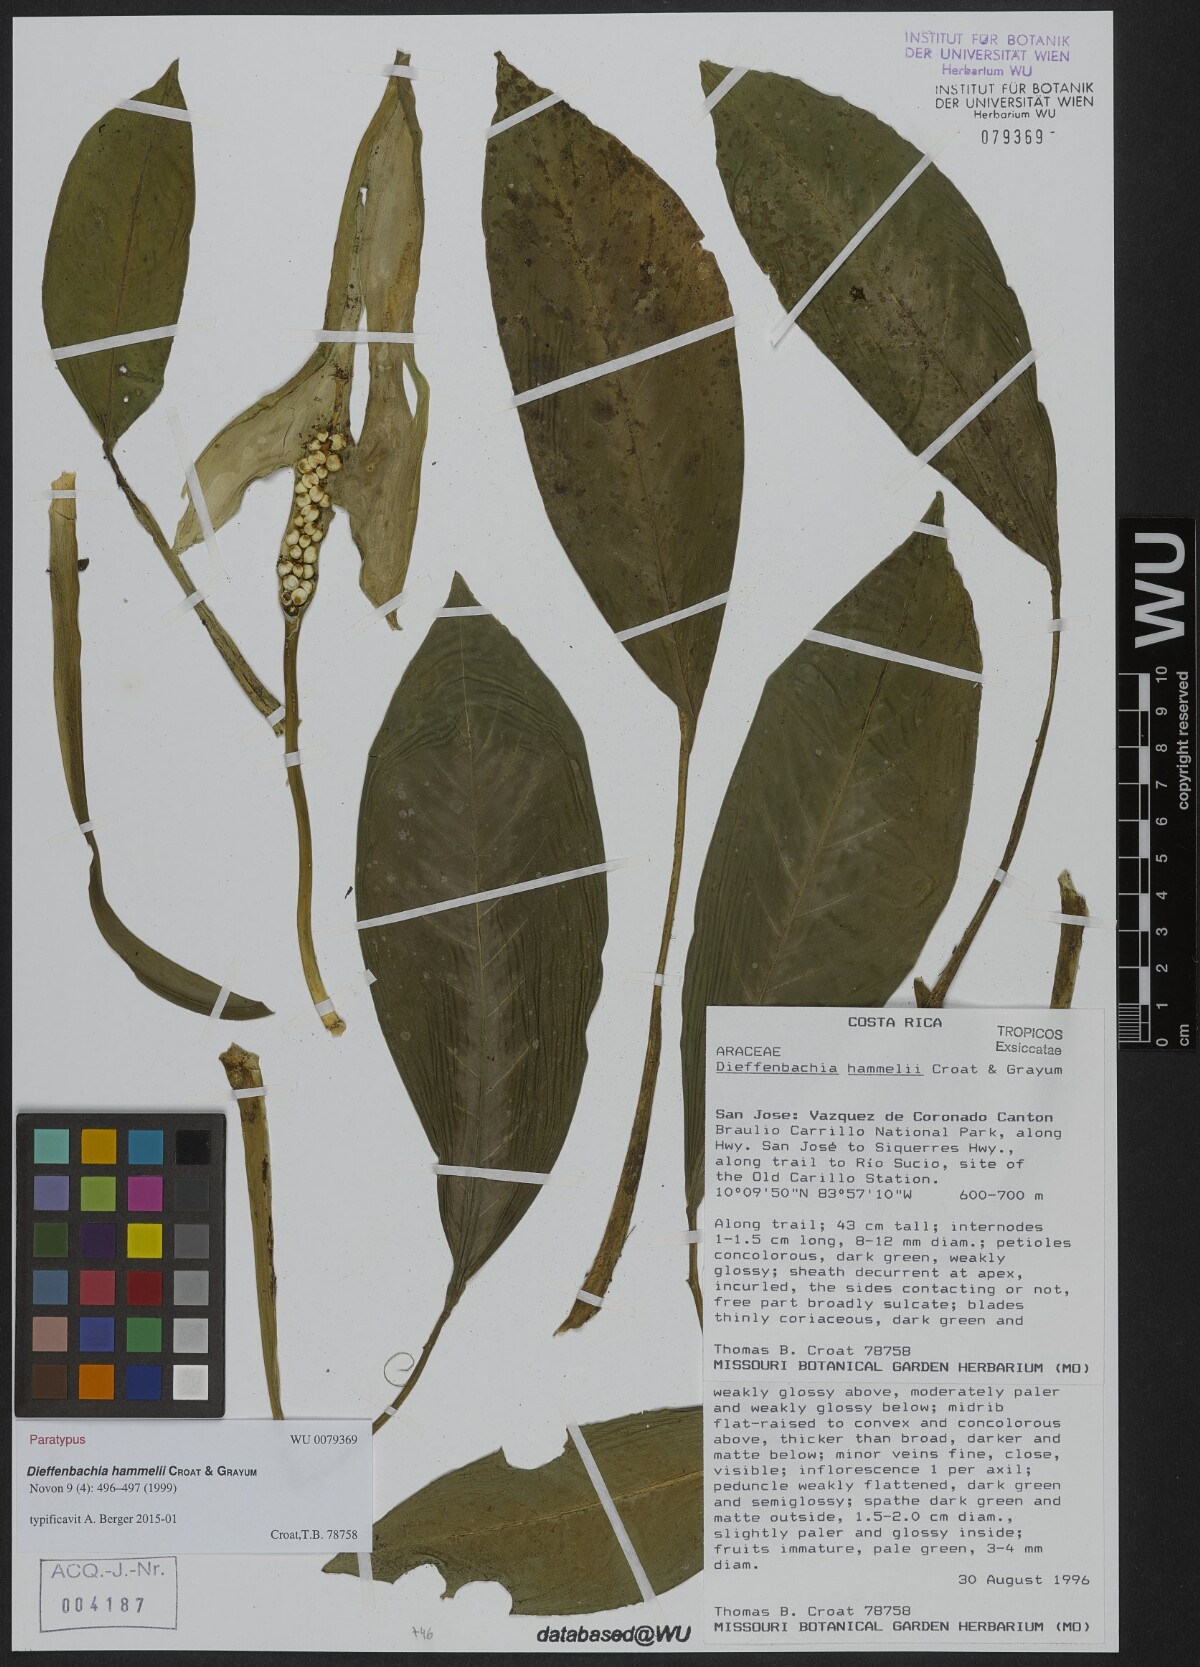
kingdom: Plantae
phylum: Tracheophyta
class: Liliopsida
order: Alismatales
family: Araceae
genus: Dieffenbachia
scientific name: Dieffenbachia hammelii
